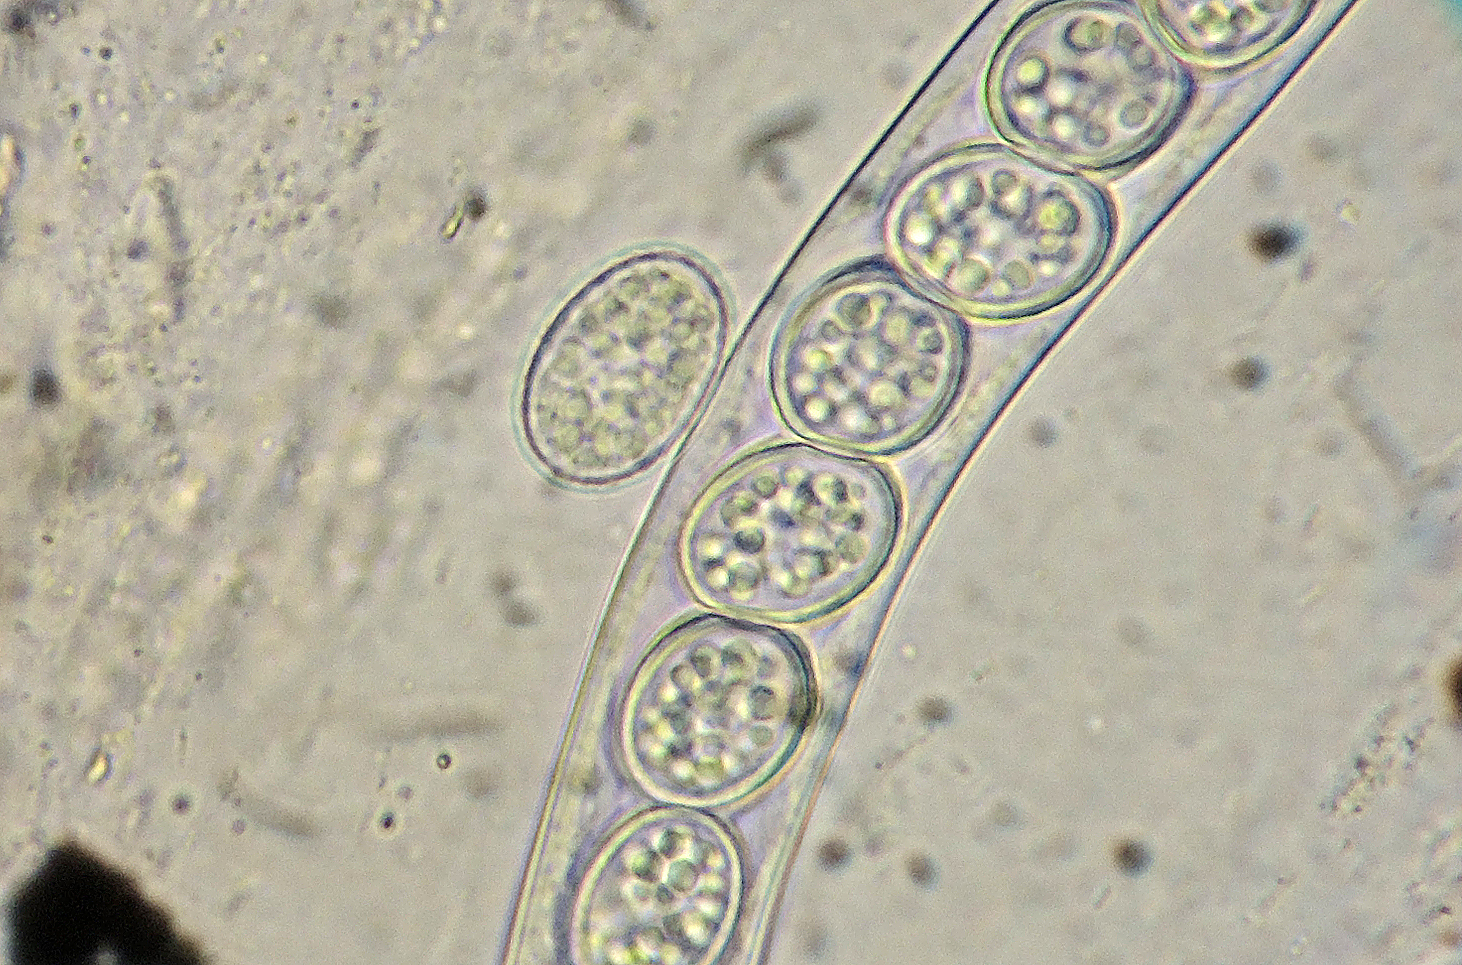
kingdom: Fungi
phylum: Ascomycota
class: Pezizomycetes
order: Pezizales
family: Pyronemataceae
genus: Scutellinia
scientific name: Scutellinia vitreola
